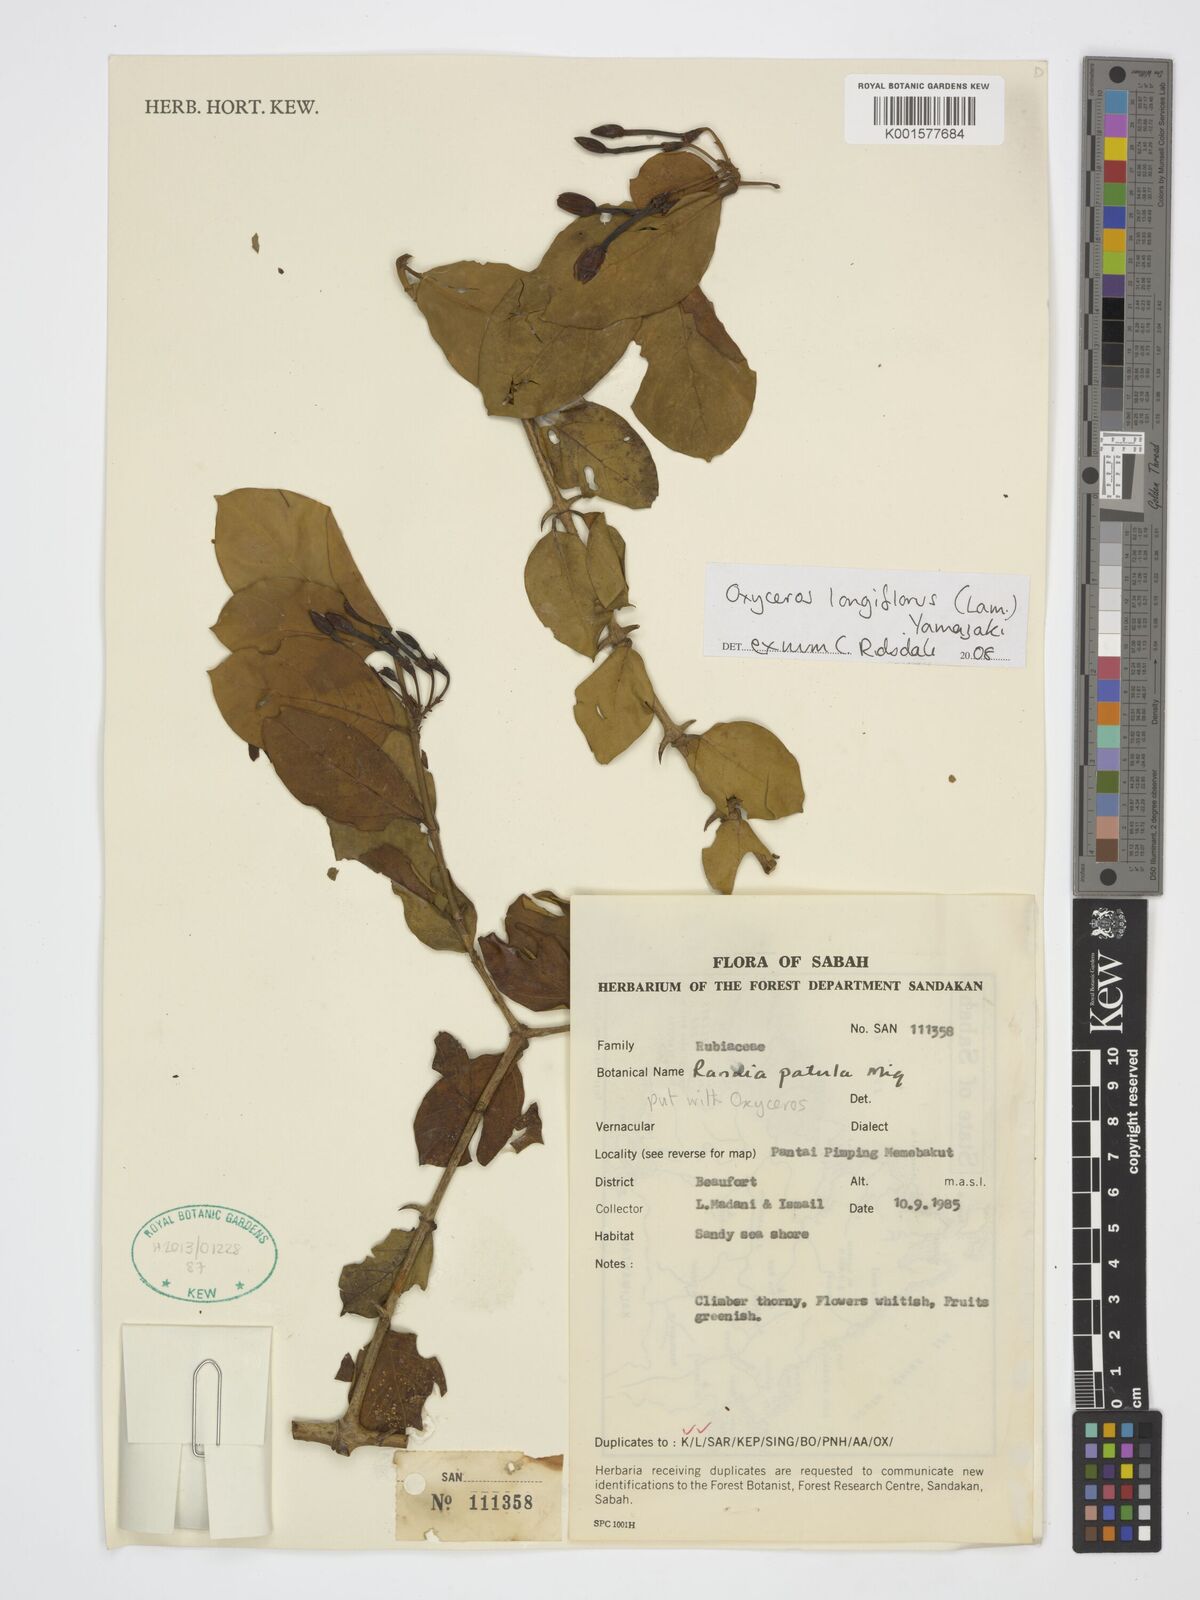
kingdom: Plantae
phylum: Tracheophyta
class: Magnoliopsida
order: Gentianales
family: Rubiaceae
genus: Oxyceros
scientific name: Oxyceros longiflorus
